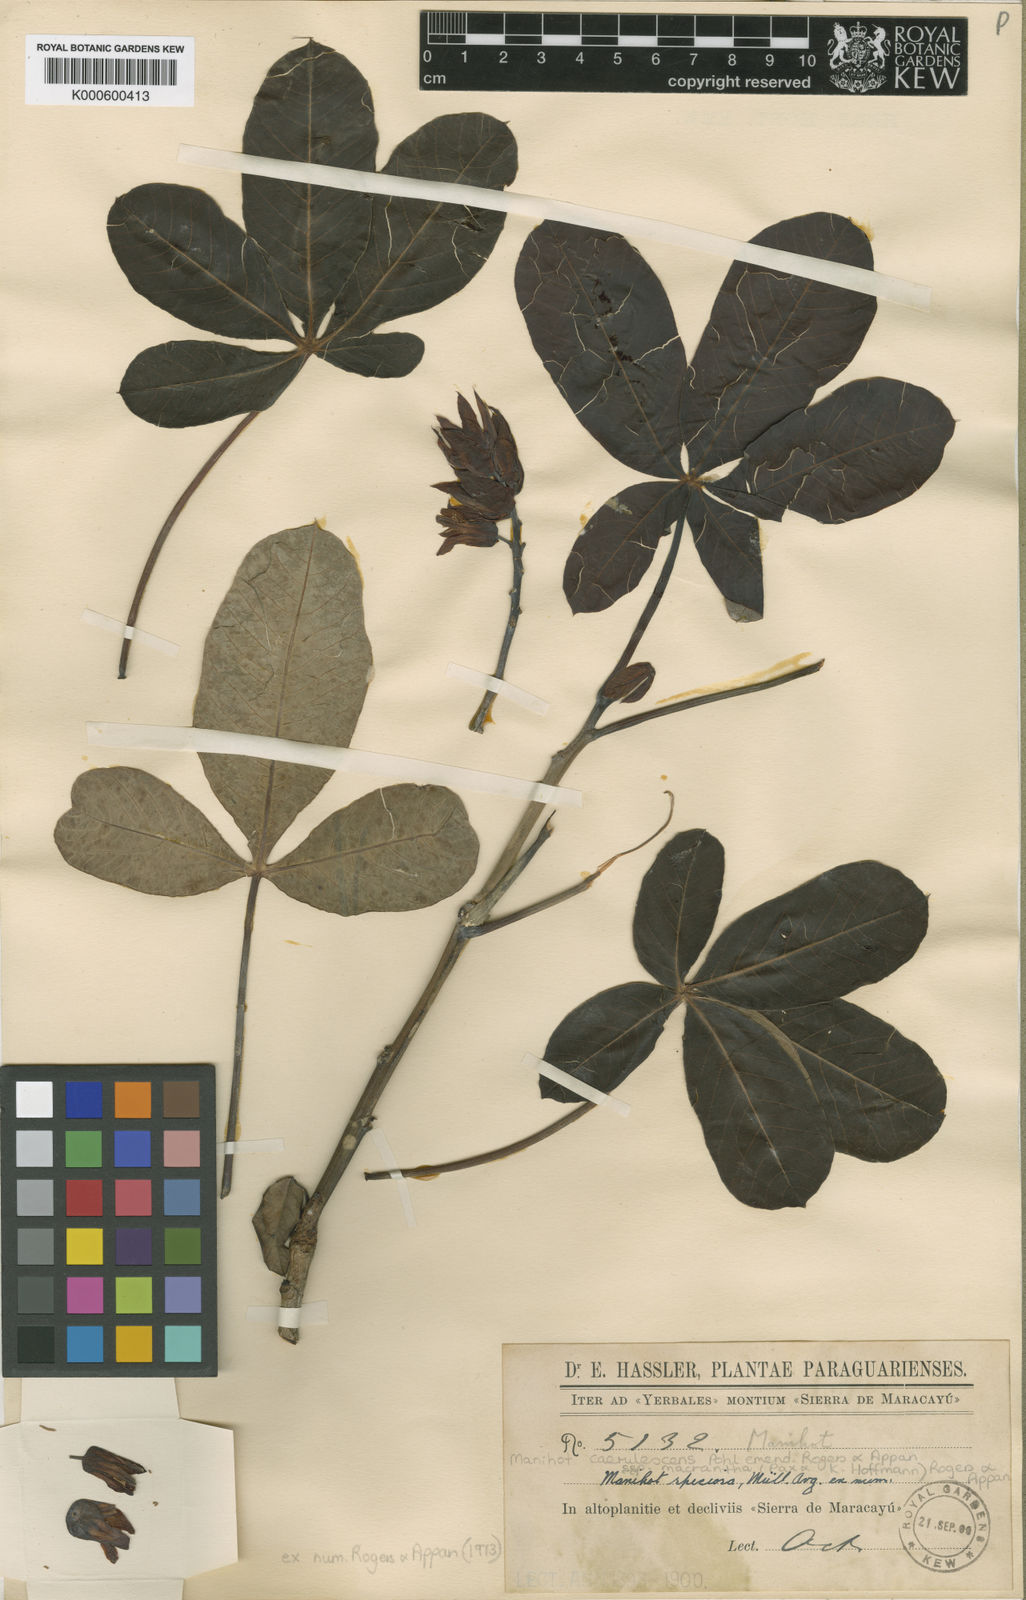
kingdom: Plantae
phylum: Tracheophyta
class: Magnoliopsida
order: Malpighiales
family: Euphorbiaceae
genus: Manihot
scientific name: Manihot caerulescens
